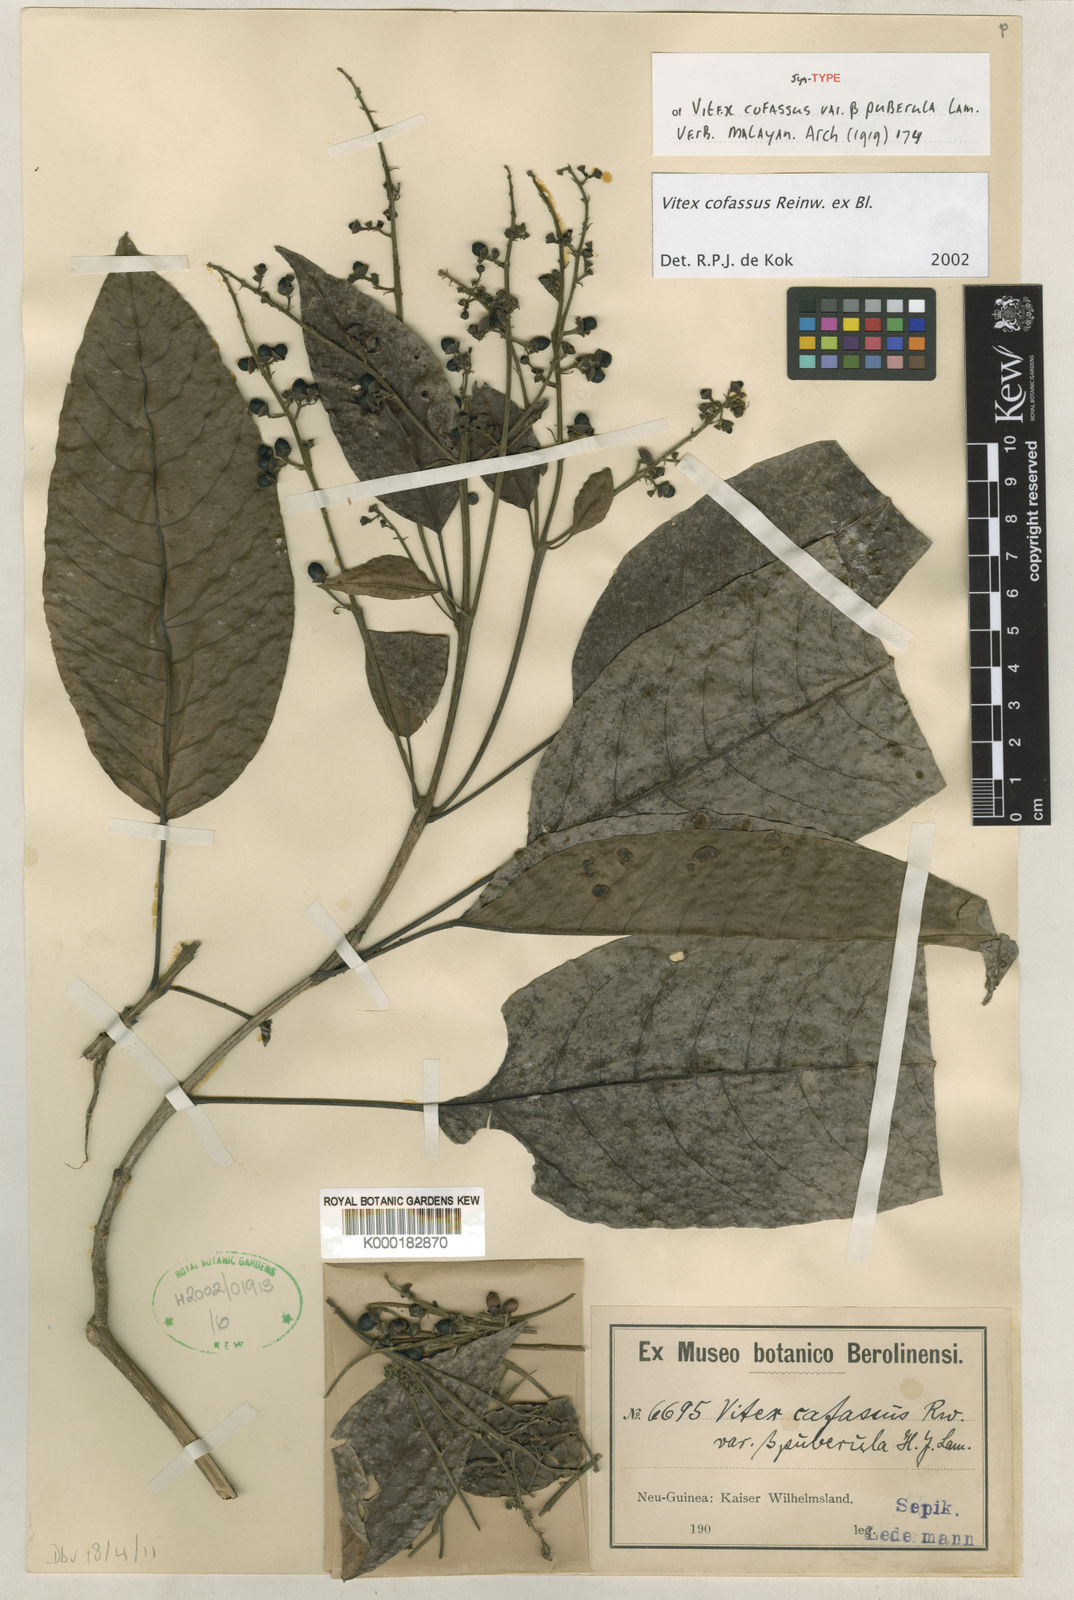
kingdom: Plantae
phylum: Tracheophyta
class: Magnoliopsida
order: Lamiales
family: Lamiaceae
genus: Vitex
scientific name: Vitex cofassus
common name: New guinea-teak
